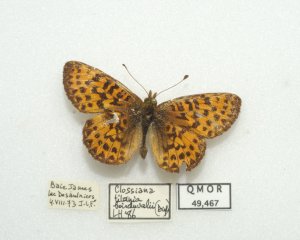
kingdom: Animalia
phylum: Arthropoda
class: Insecta
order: Lepidoptera
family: Nymphalidae
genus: Boloria
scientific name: Boloria chariclea
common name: Arctic Fritillary
